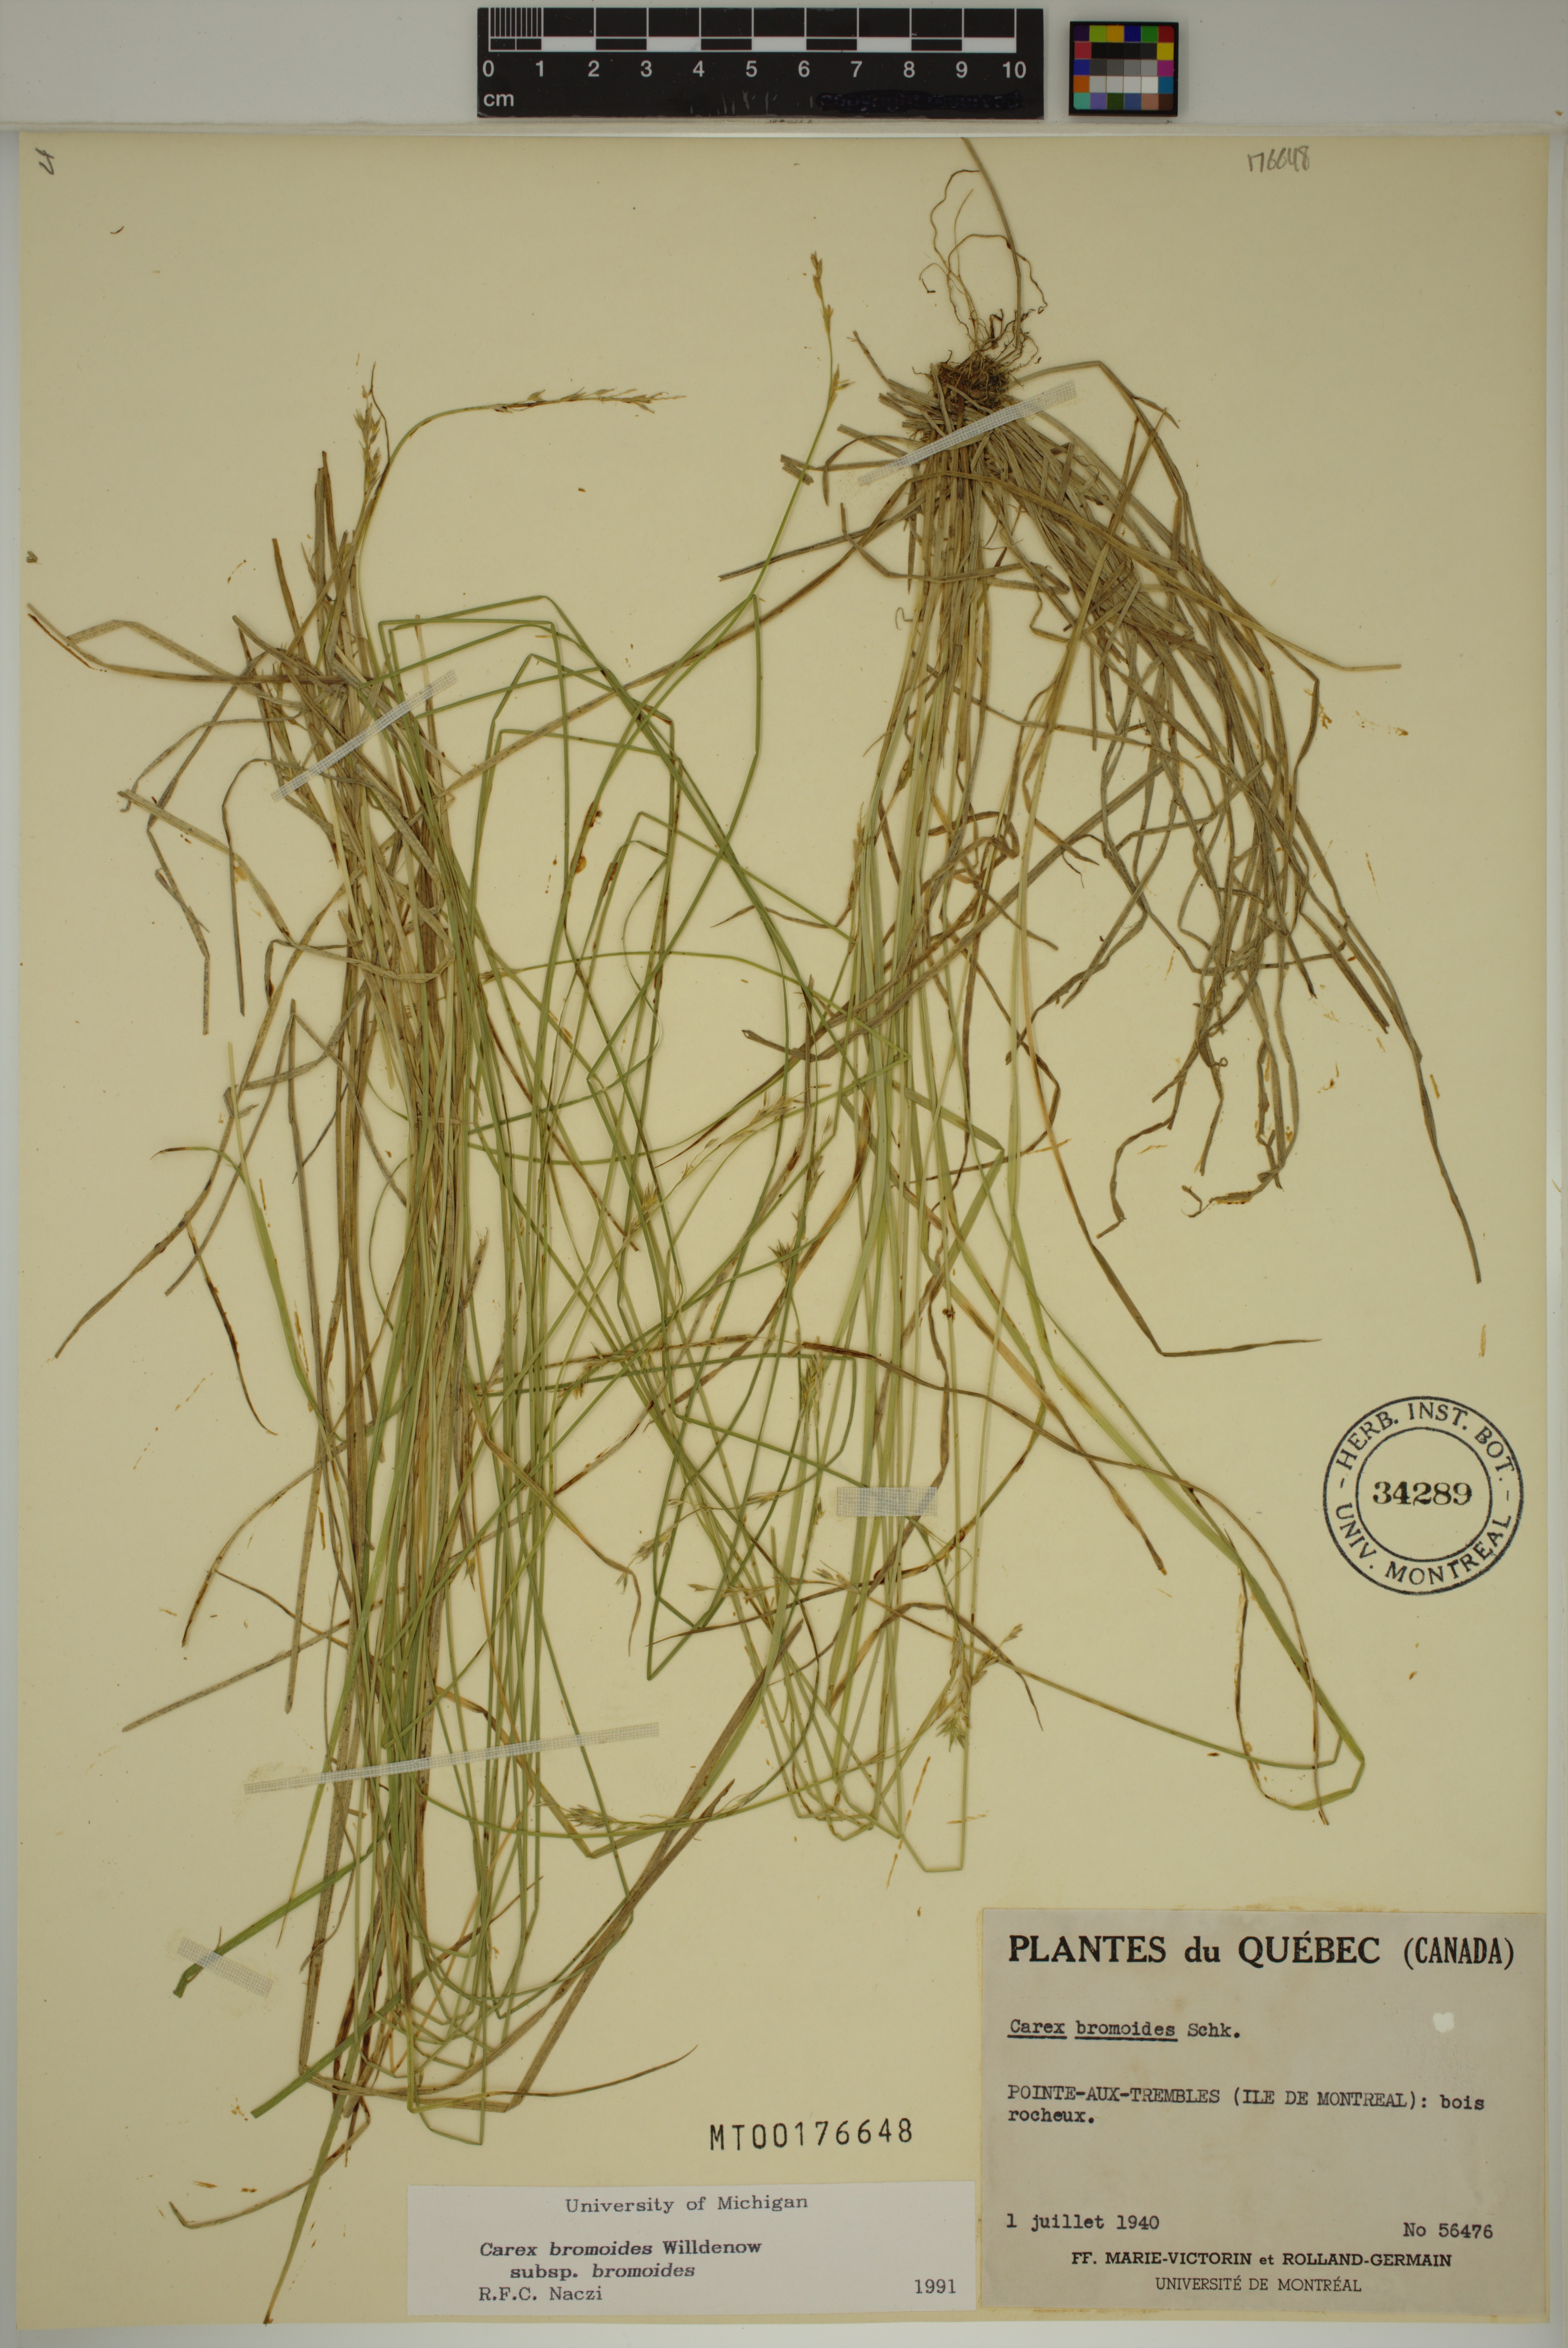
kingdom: Plantae
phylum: Tracheophyta
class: Liliopsida
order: Poales
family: Cyperaceae
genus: Carex
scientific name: Carex bromoides
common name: Brome hummock sedge
